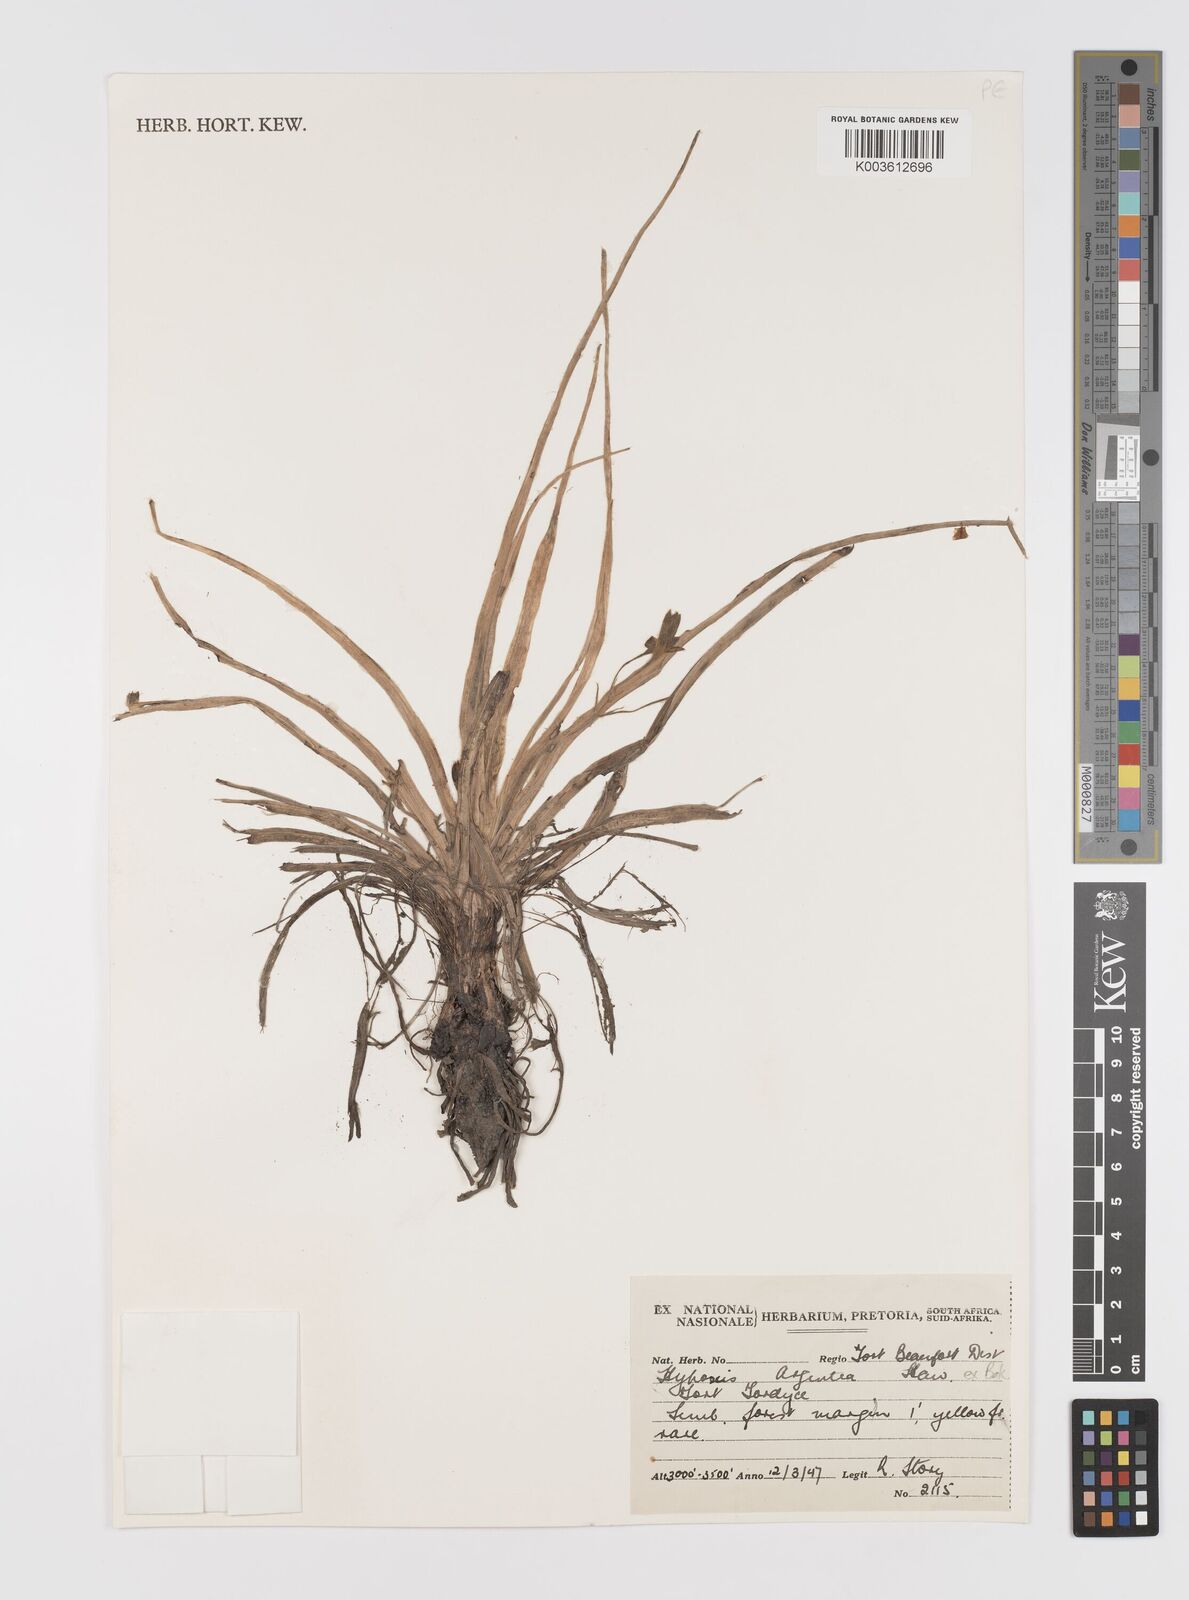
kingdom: Plantae
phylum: Tracheophyta
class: Liliopsida
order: Asparagales
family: Hypoxidaceae
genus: Hypoxis
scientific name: Hypoxis argentea
